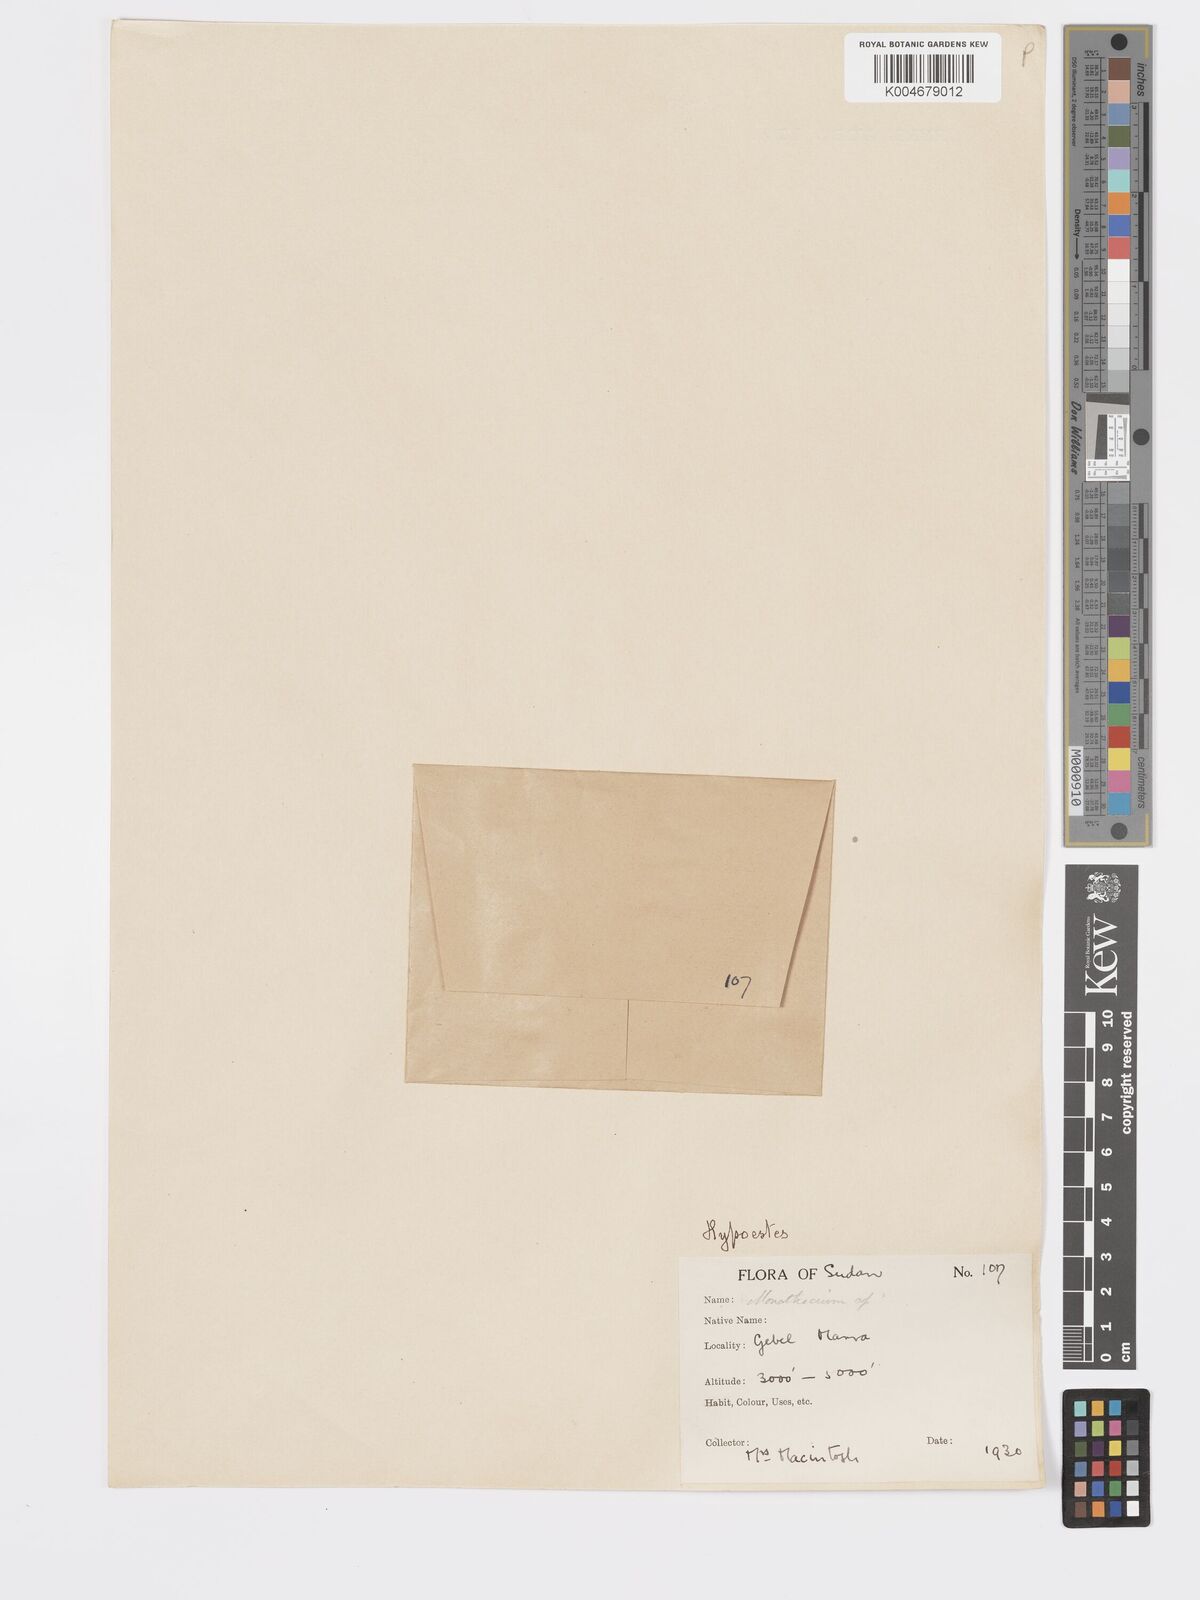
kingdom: Plantae
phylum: Tracheophyta
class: Magnoliopsida
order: Lamiales
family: Acanthaceae
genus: Hypoestes
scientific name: Hypoestes forskaolii
